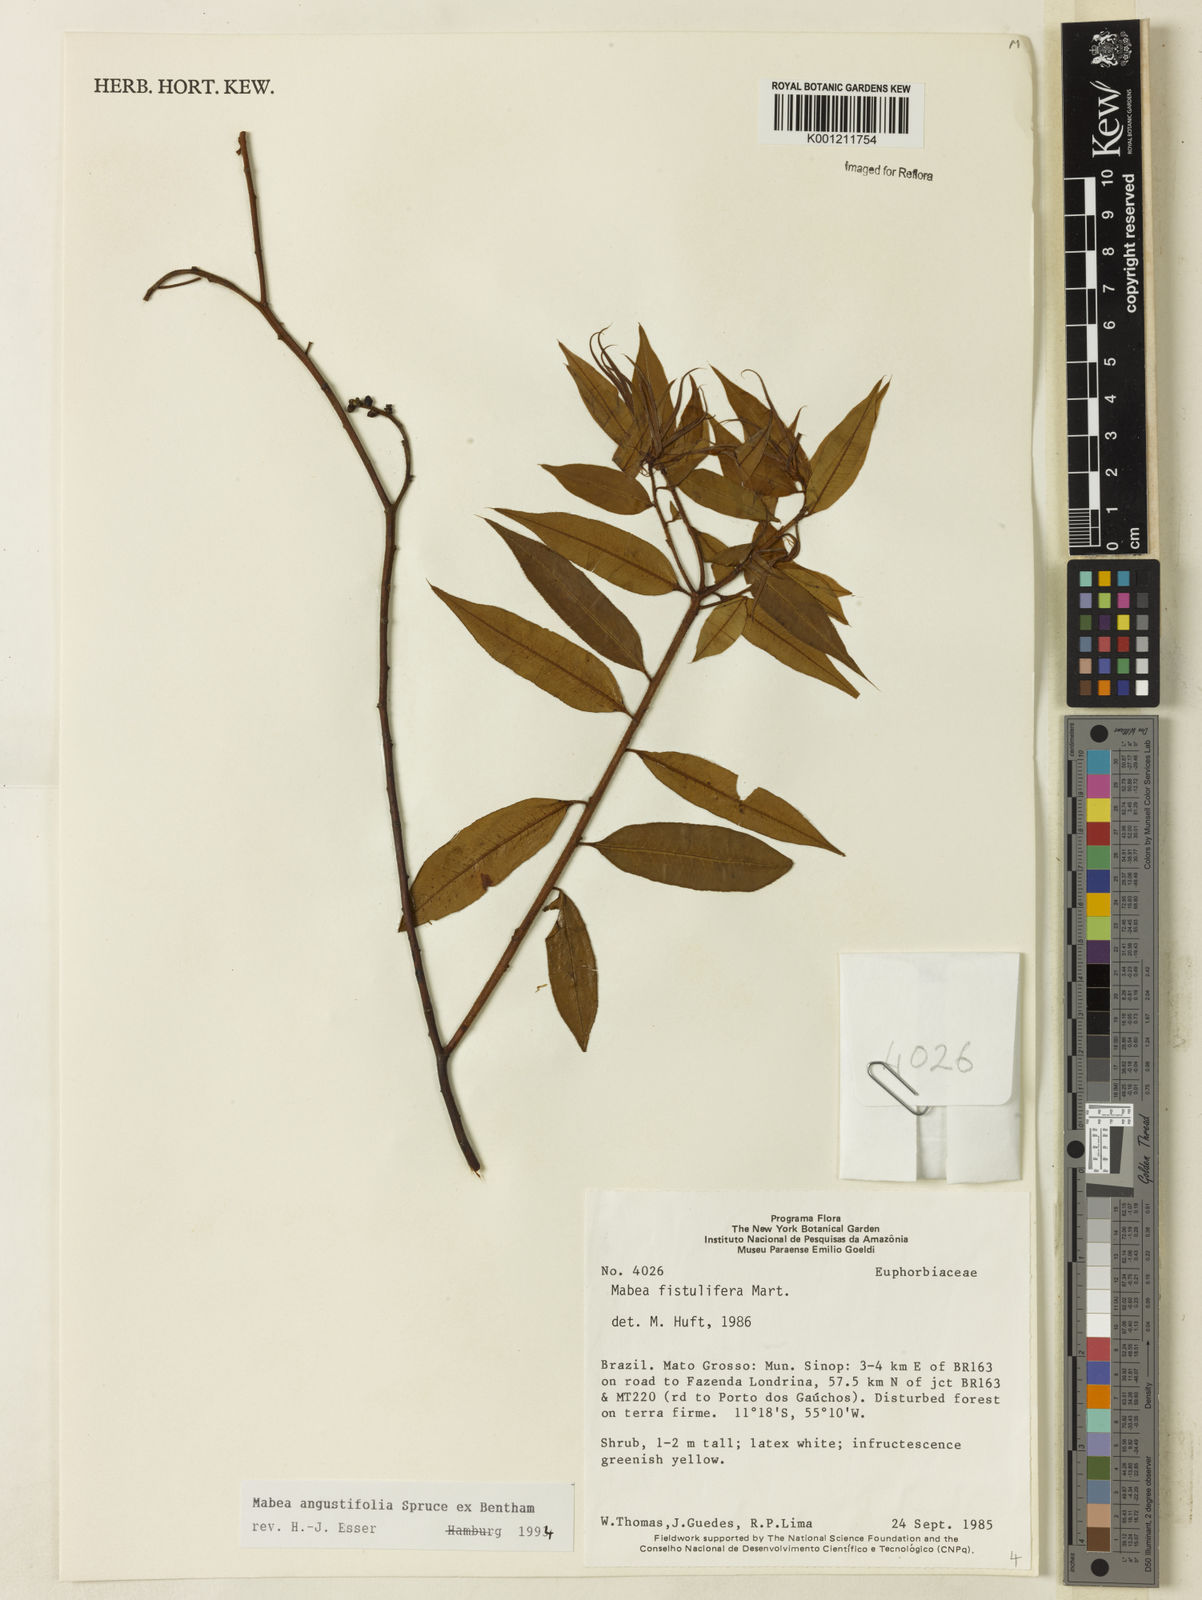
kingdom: Plantae
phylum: Tracheophyta
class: Magnoliopsida
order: Malpighiales
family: Euphorbiaceae
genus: Mabea
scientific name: Mabea angustifolia
